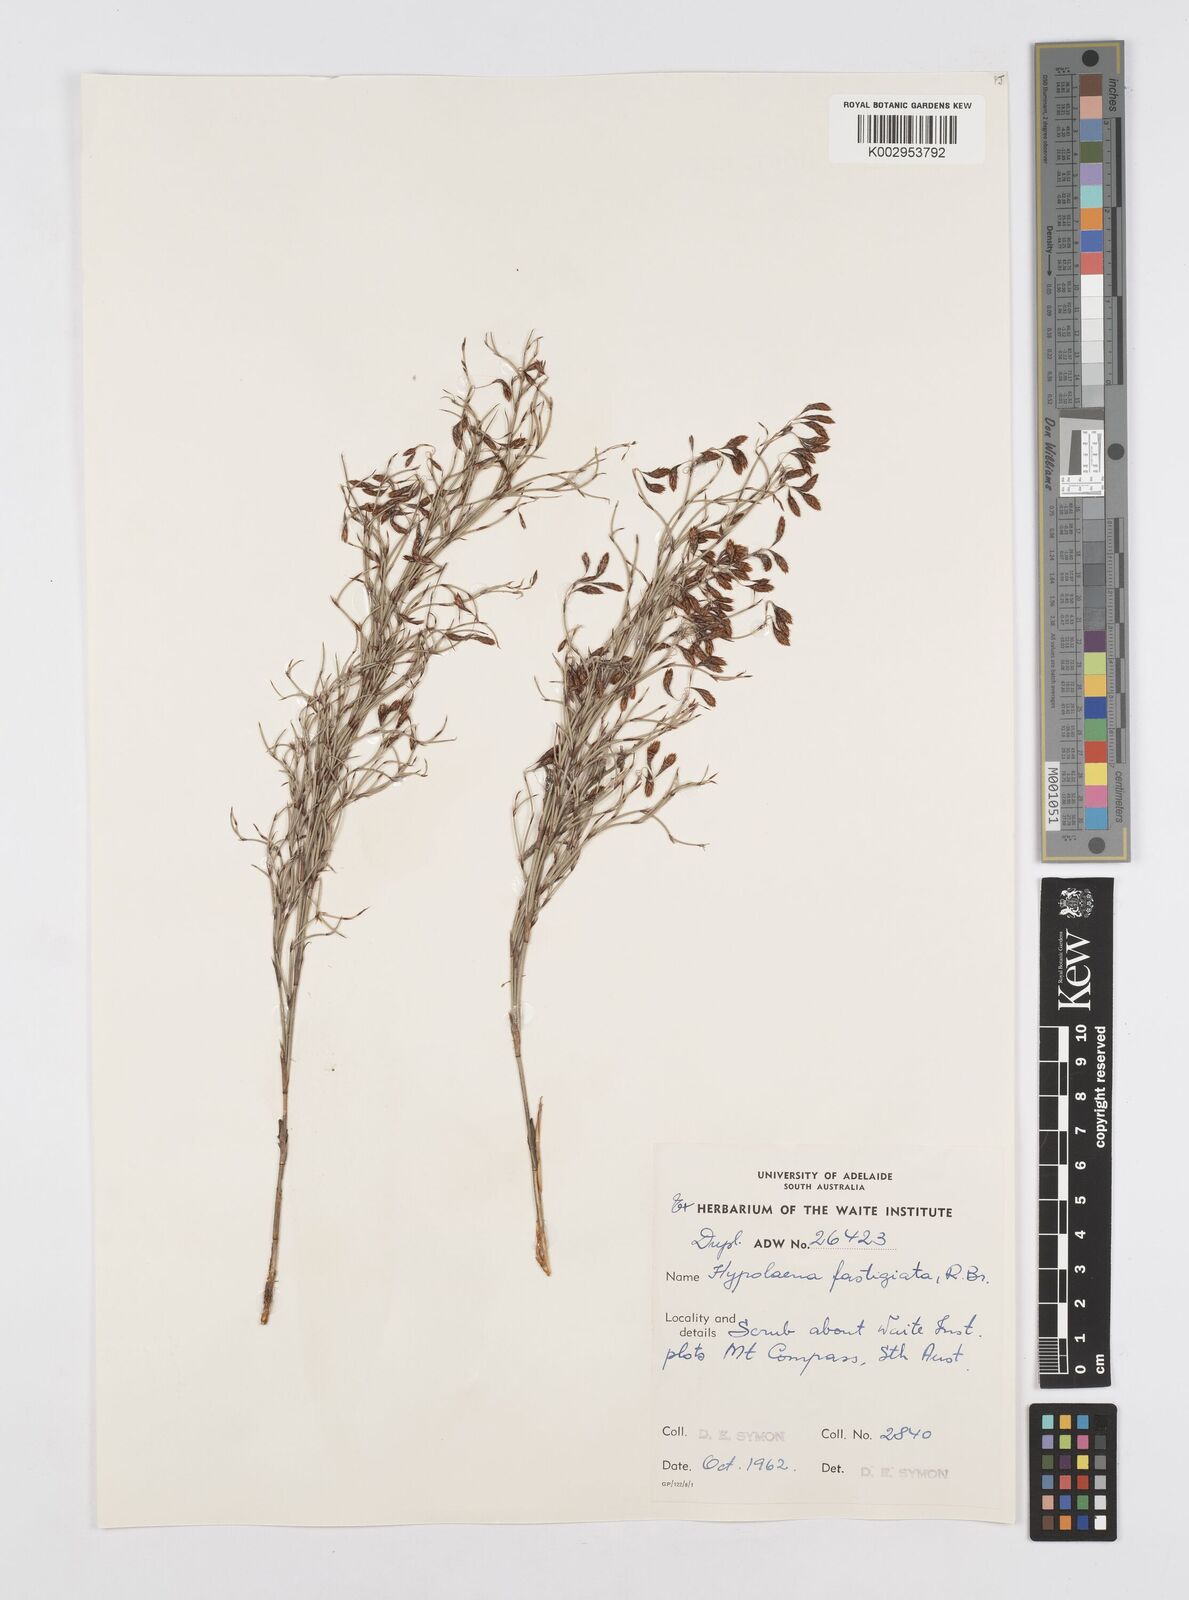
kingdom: Plantae
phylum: Tracheophyta
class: Liliopsida
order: Poales
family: Restionaceae
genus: Hypolaena
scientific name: Hypolaena fastigiata
